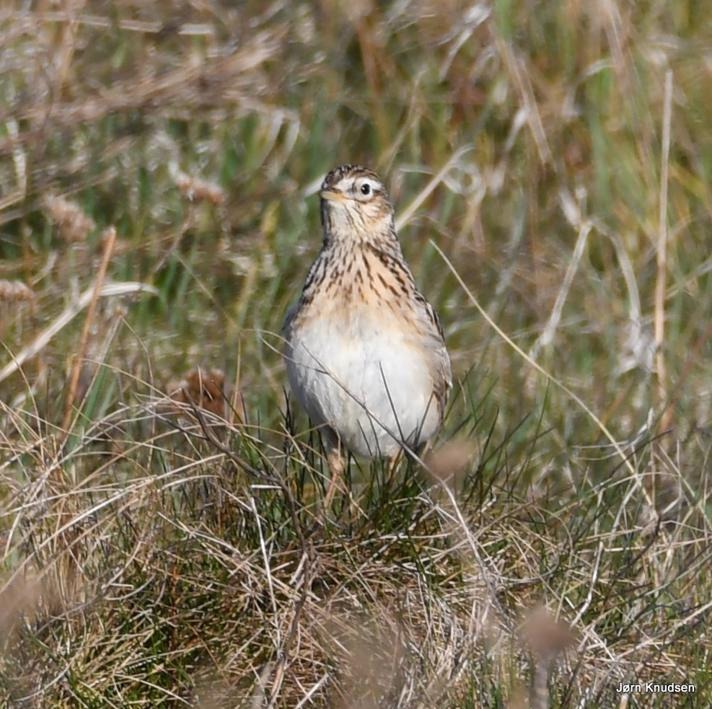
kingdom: Animalia
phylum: Chordata
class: Aves
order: Passeriformes
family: Alaudidae
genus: Alauda
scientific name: Alauda arvensis
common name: Sanglærke
